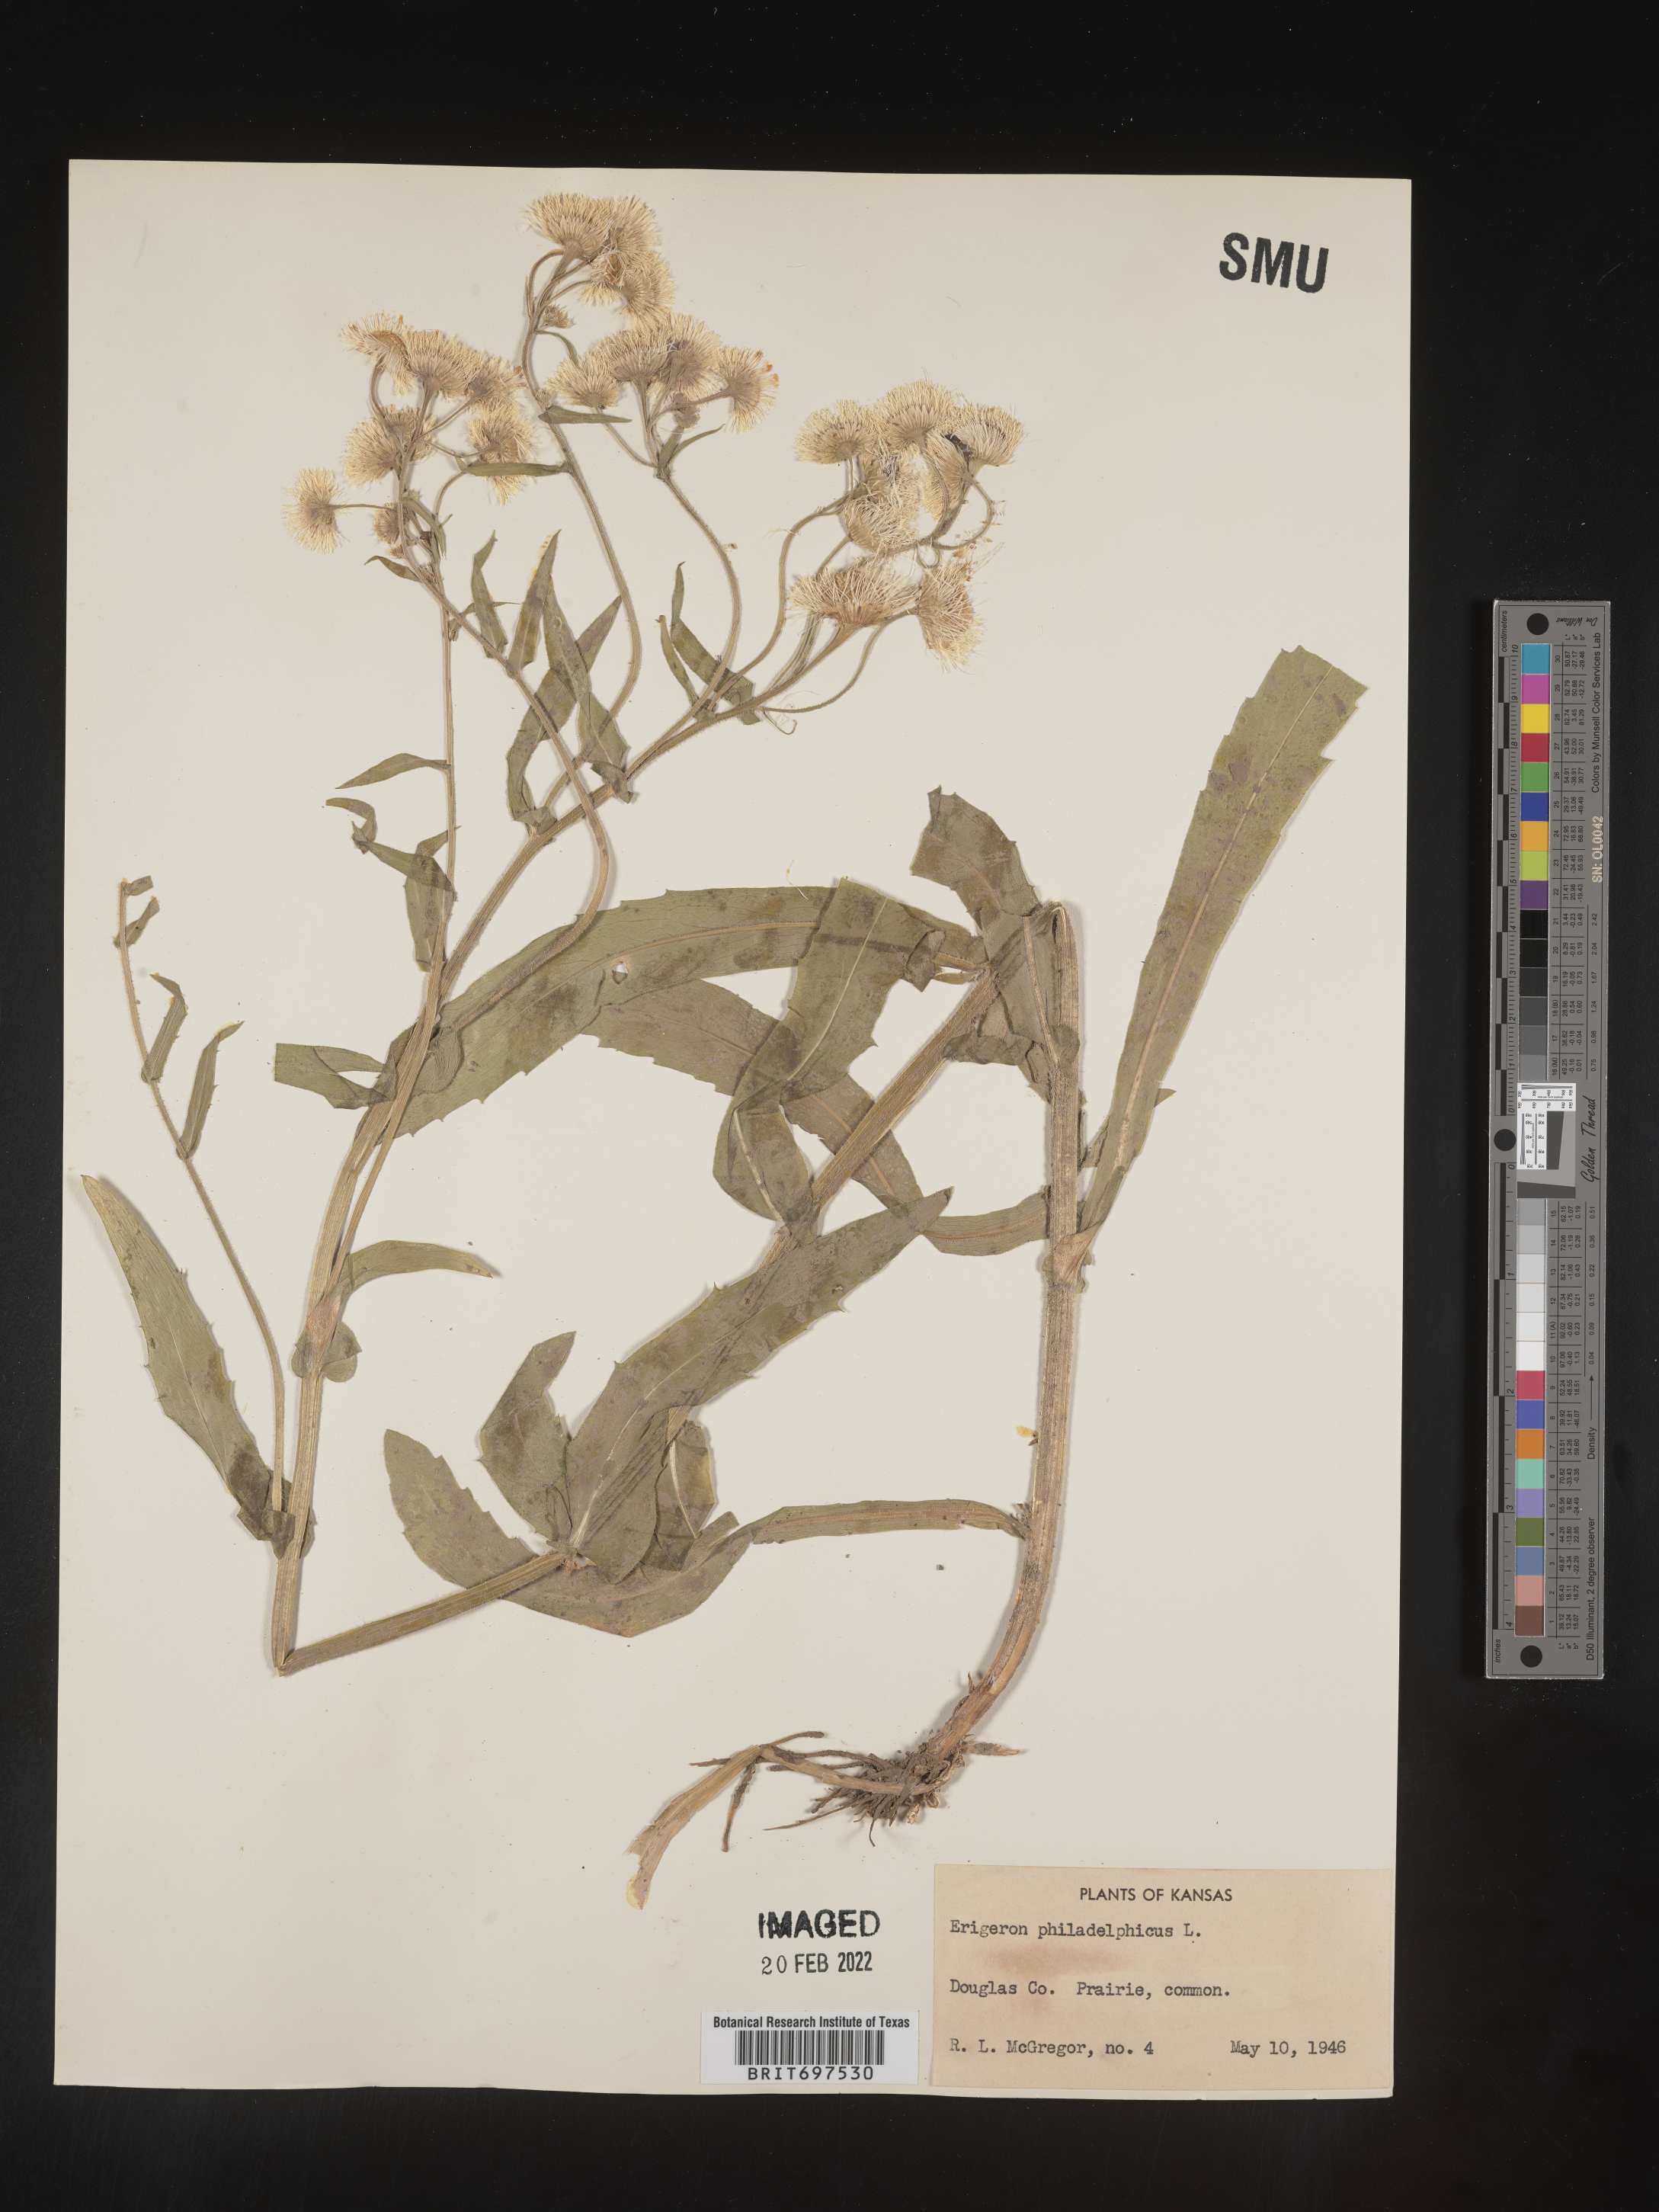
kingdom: Plantae
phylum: Tracheophyta
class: Magnoliopsida
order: Asterales
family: Asteraceae
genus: Erigeron
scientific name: Erigeron philadelphicus
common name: Robin's-plantain
